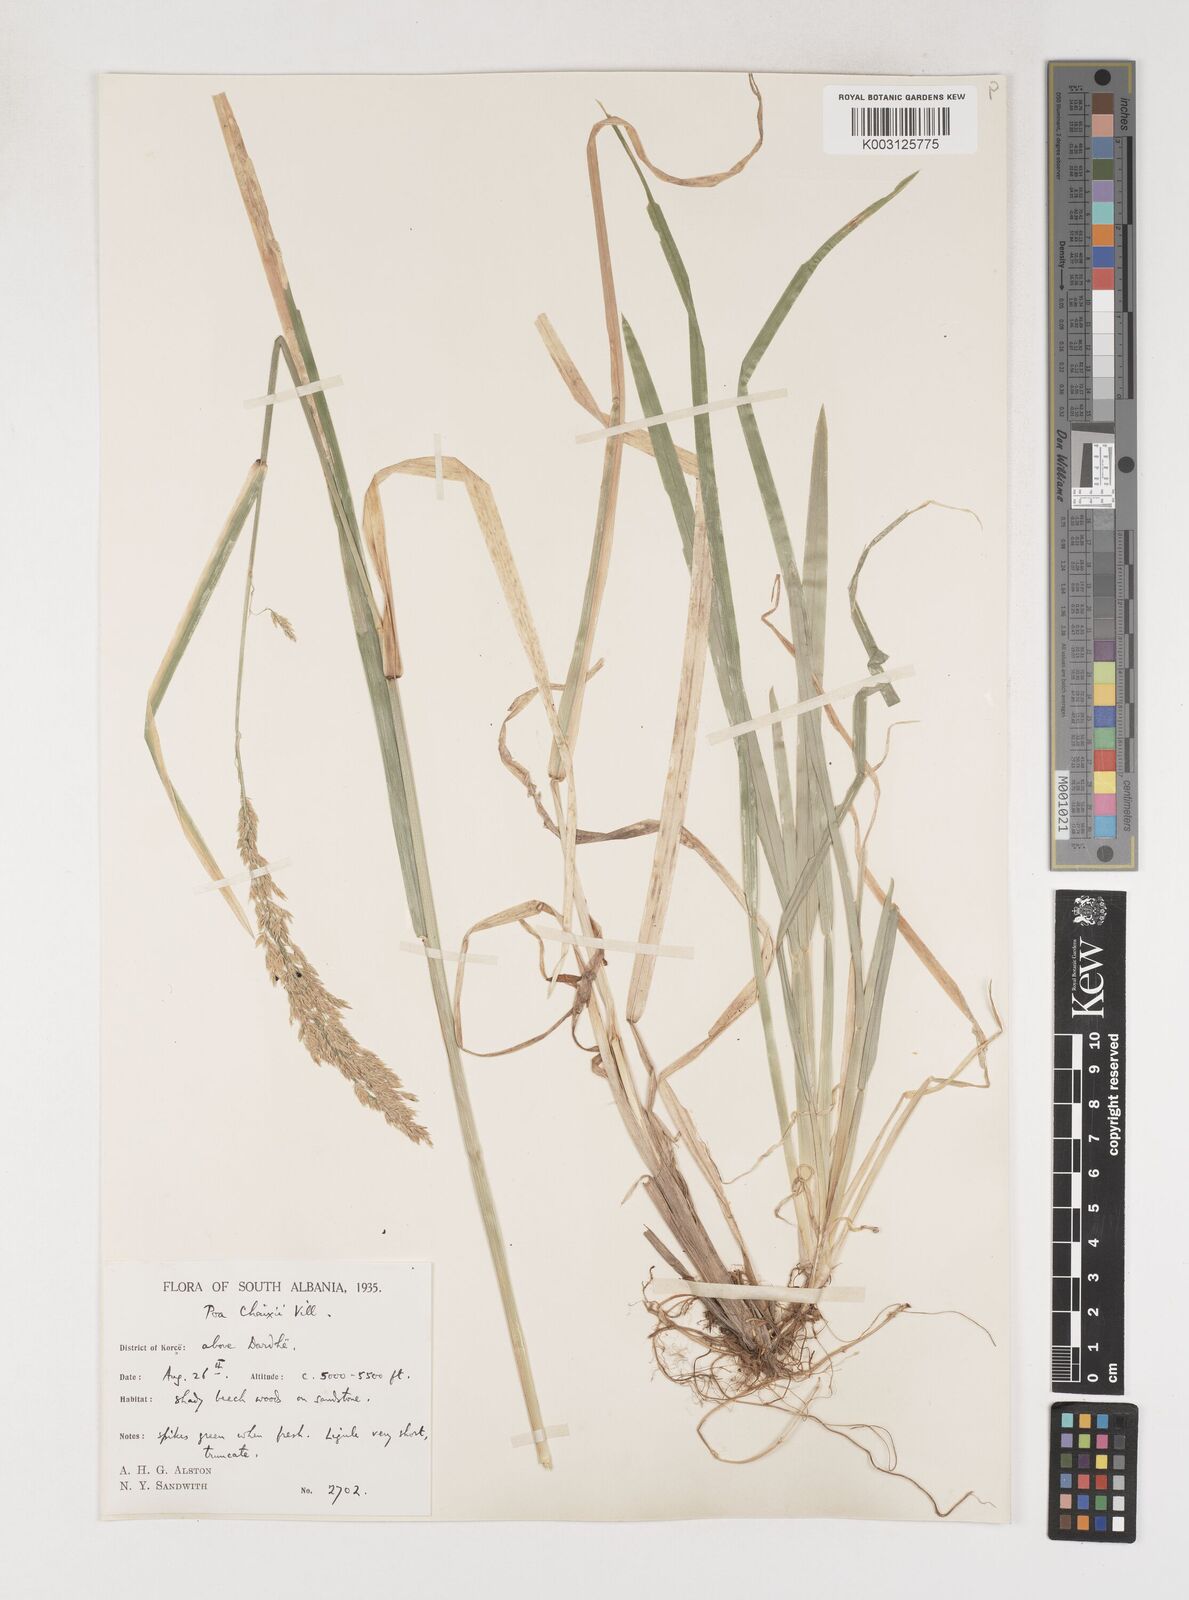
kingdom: Plantae
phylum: Tracheophyta
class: Liliopsida
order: Poales
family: Poaceae
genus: Poa
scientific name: Poa chaixii
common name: Broad-leaved meadow-grass
